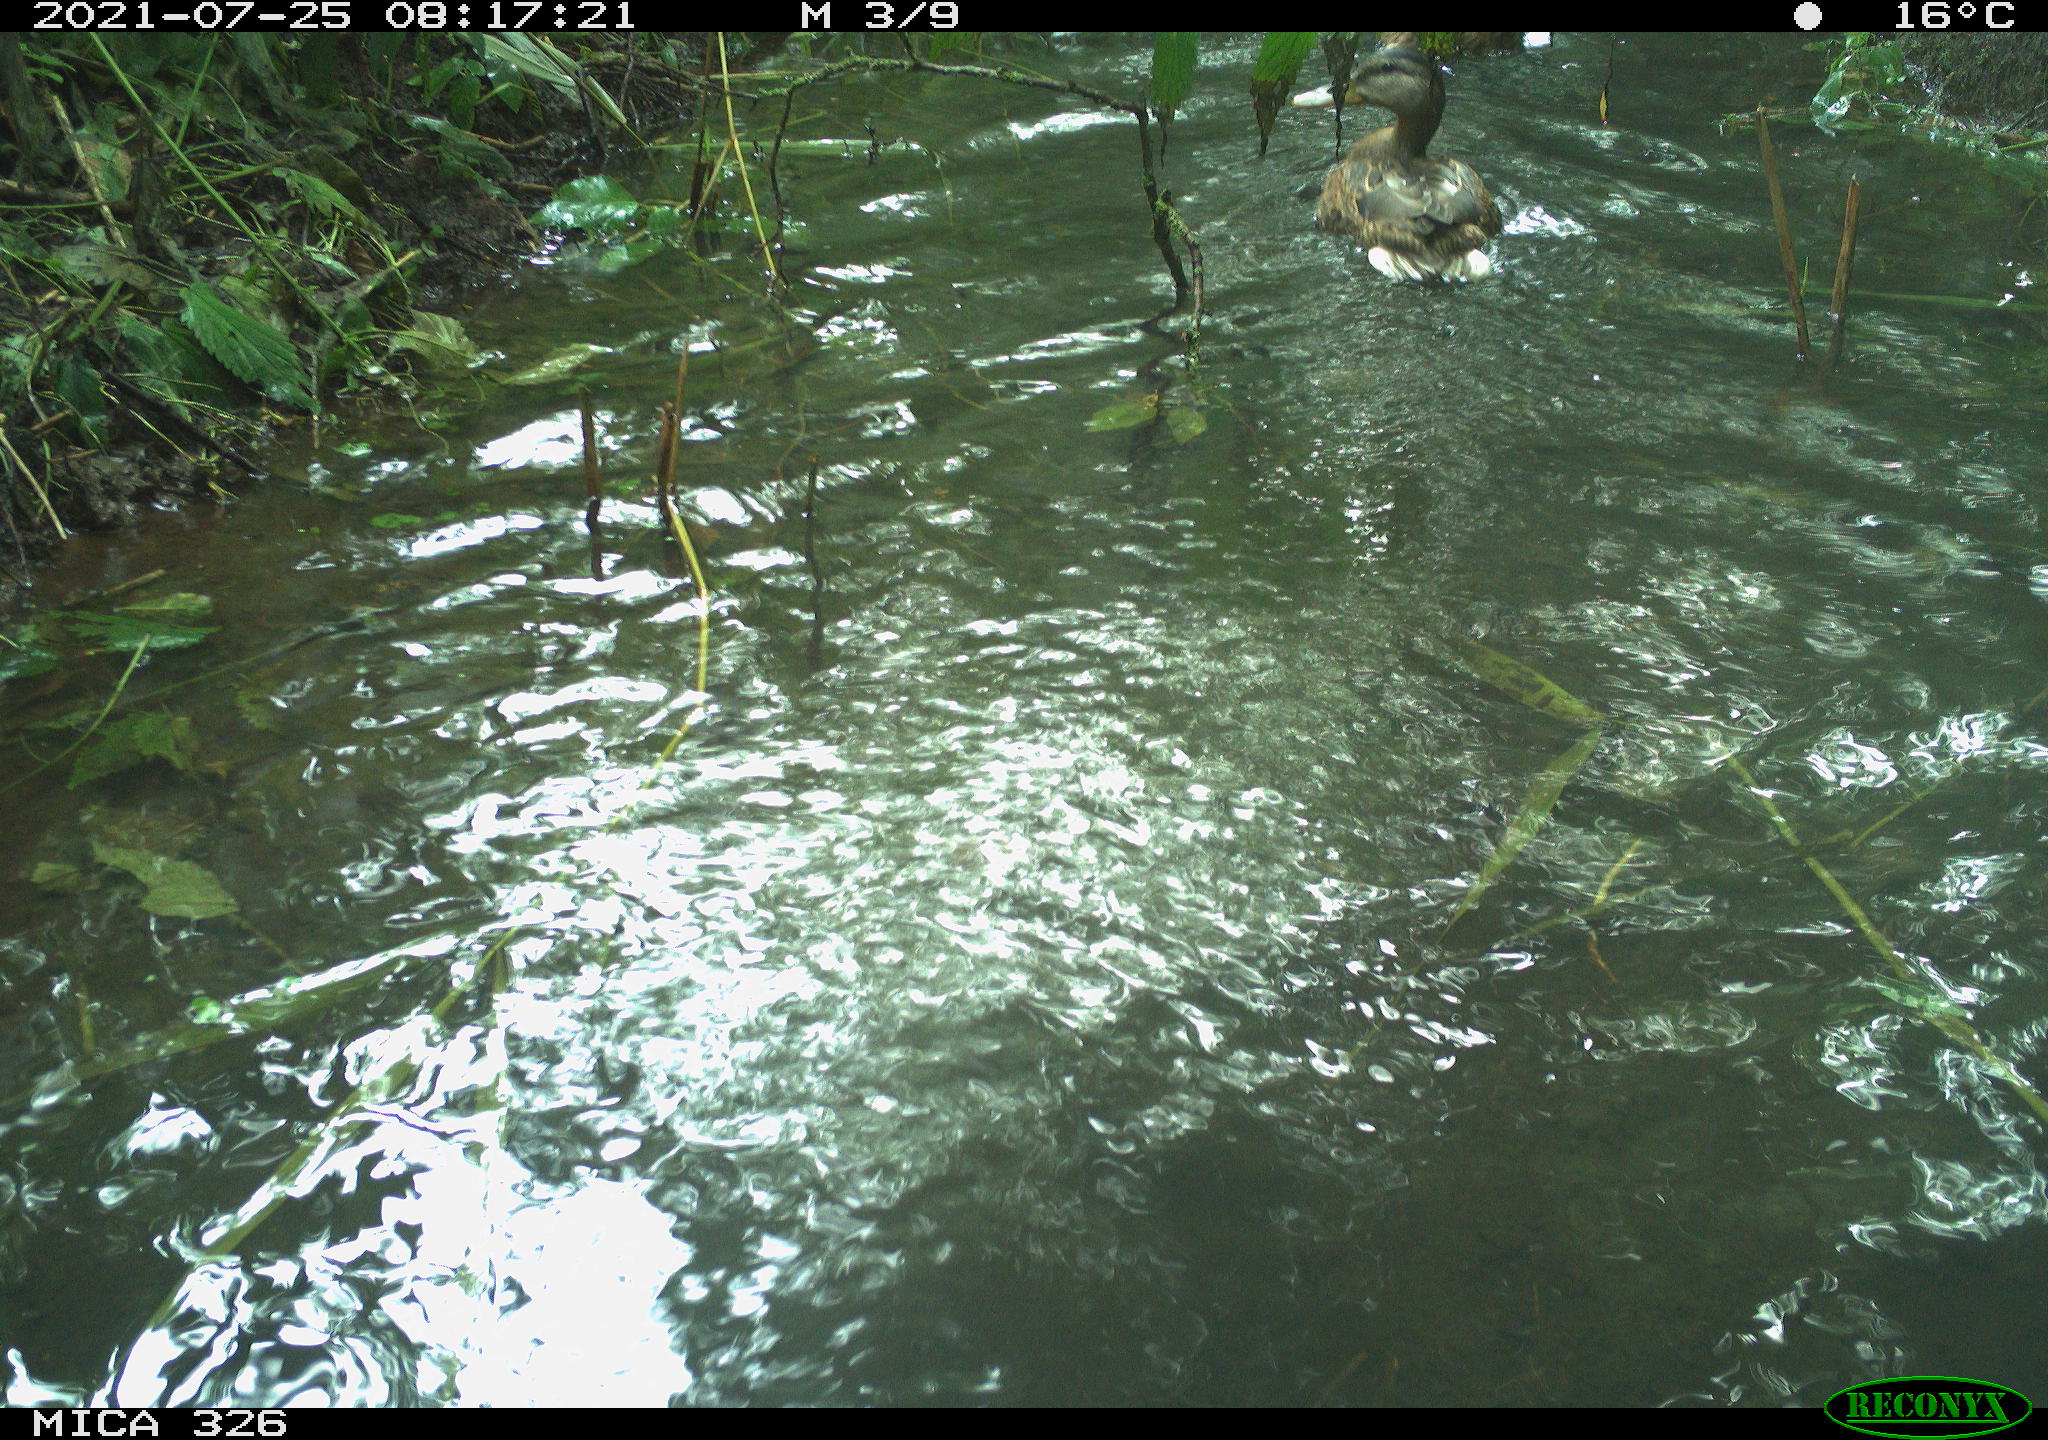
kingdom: Animalia
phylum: Chordata
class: Aves
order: Anseriformes
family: Anatidae
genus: Anas
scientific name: Anas platyrhynchos
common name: Mallard
